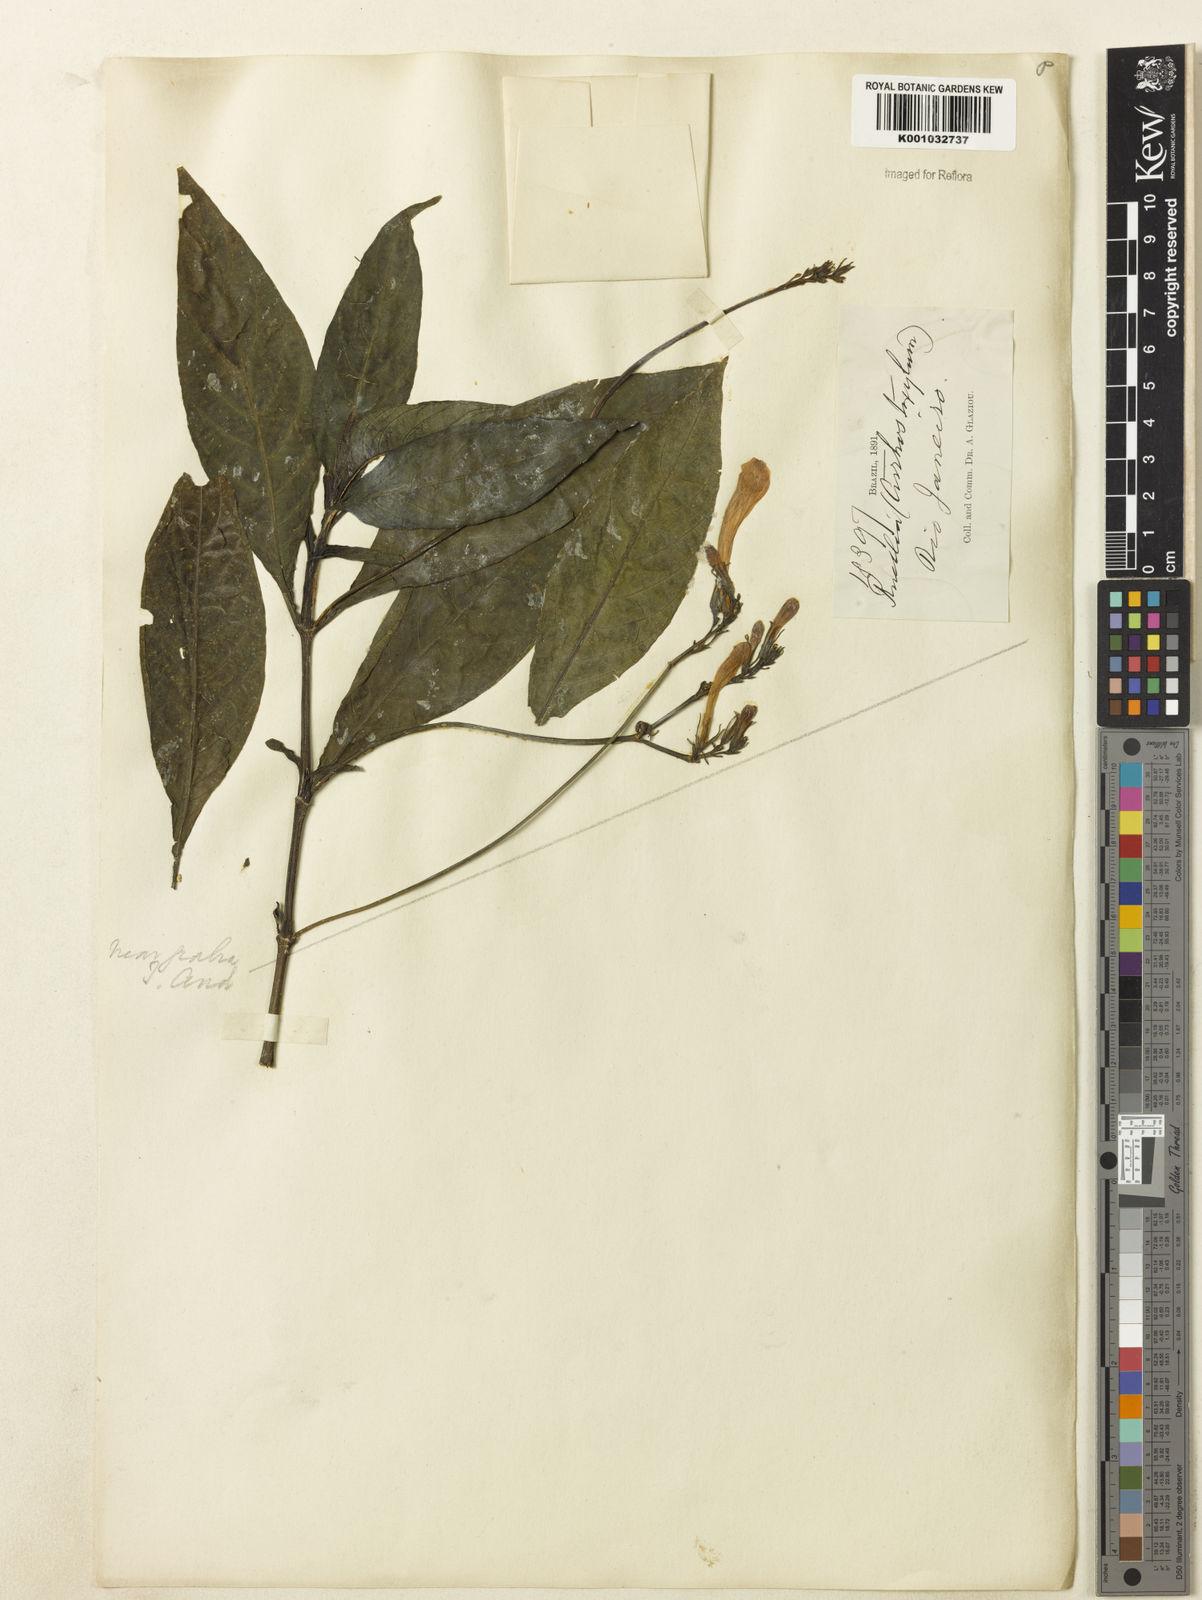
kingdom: Plantae
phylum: Tracheophyta
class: Magnoliopsida
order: Lamiales
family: Acanthaceae
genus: Ruellia
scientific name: Ruellia
